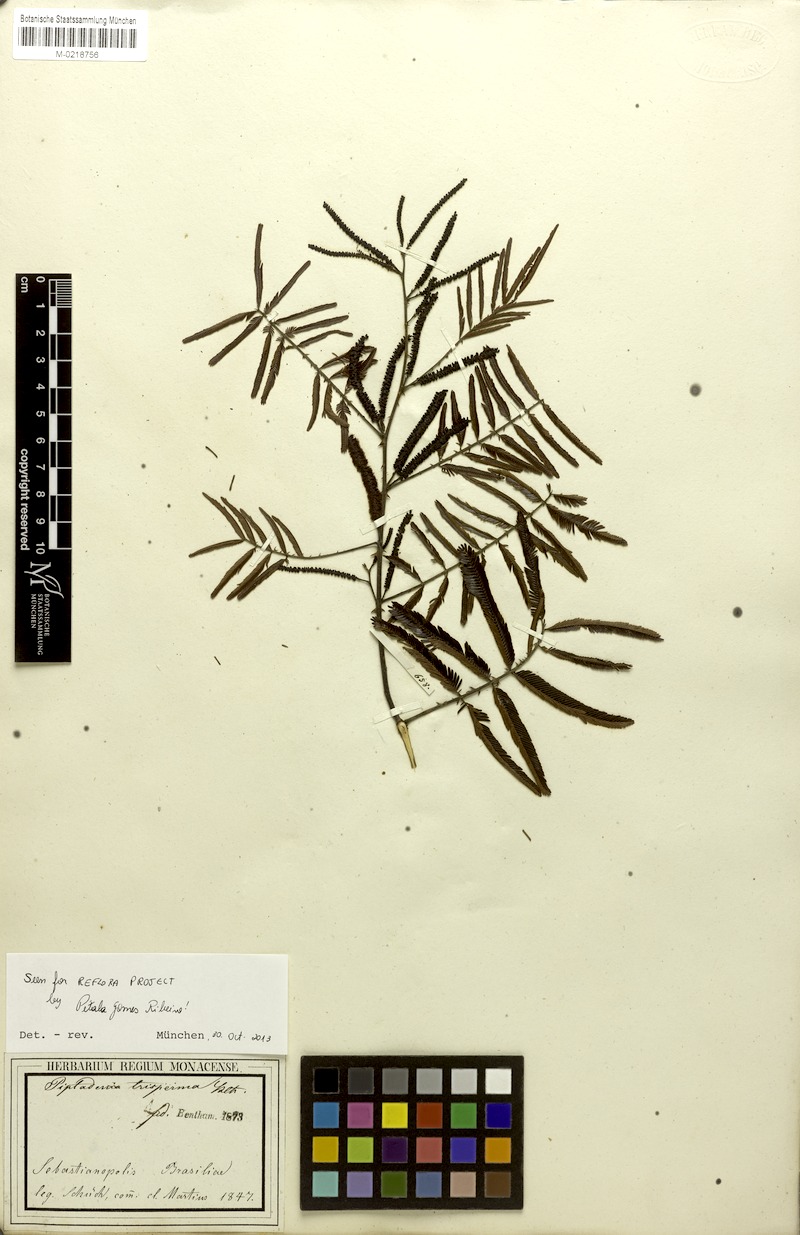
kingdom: Plantae
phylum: Tracheophyta
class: Magnoliopsida
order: Fabales
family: Fabaceae
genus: Piptadenia
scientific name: Piptadenia trisperma
